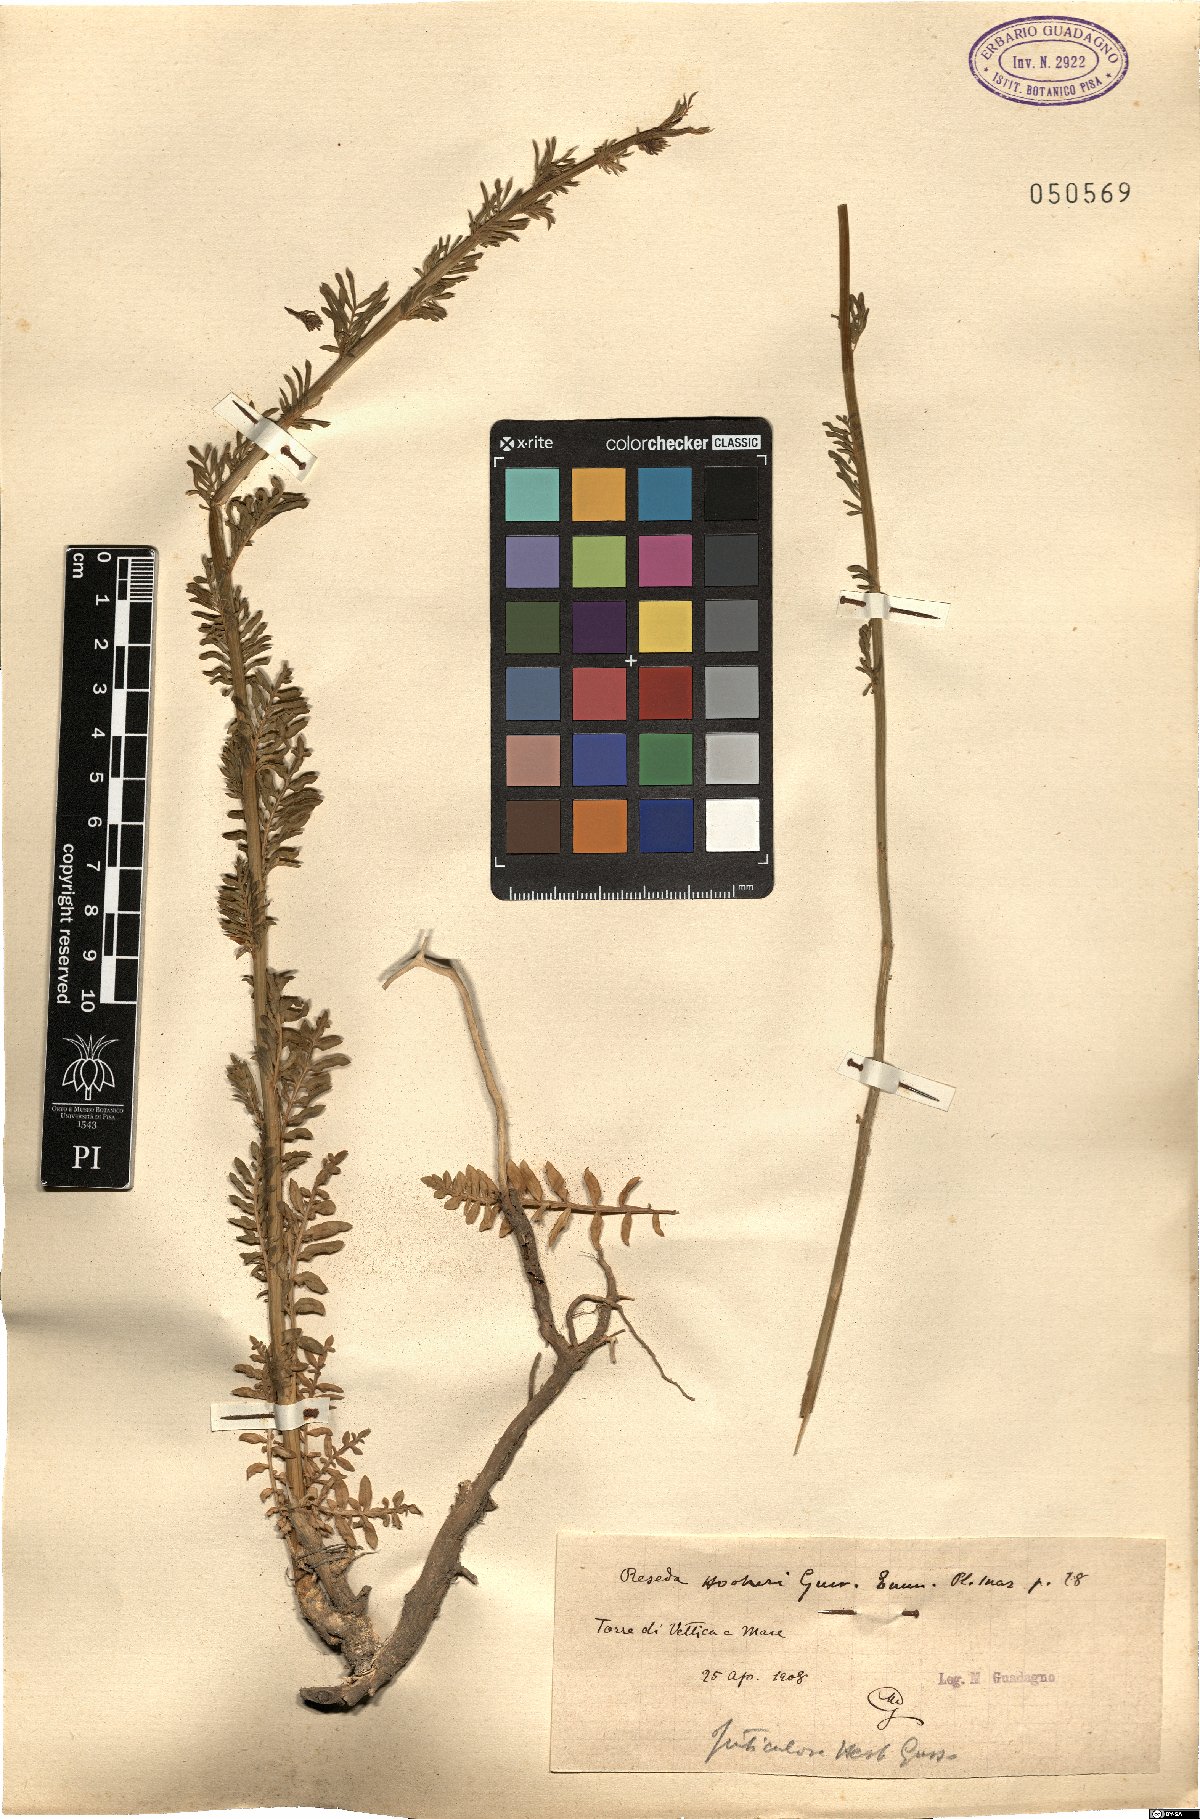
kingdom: Plantae
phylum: Tracheophyta
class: Magnoliopsida
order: Brassicales
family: Resedaceae
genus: Reseda
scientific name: Reseda alba
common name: White mignonette
